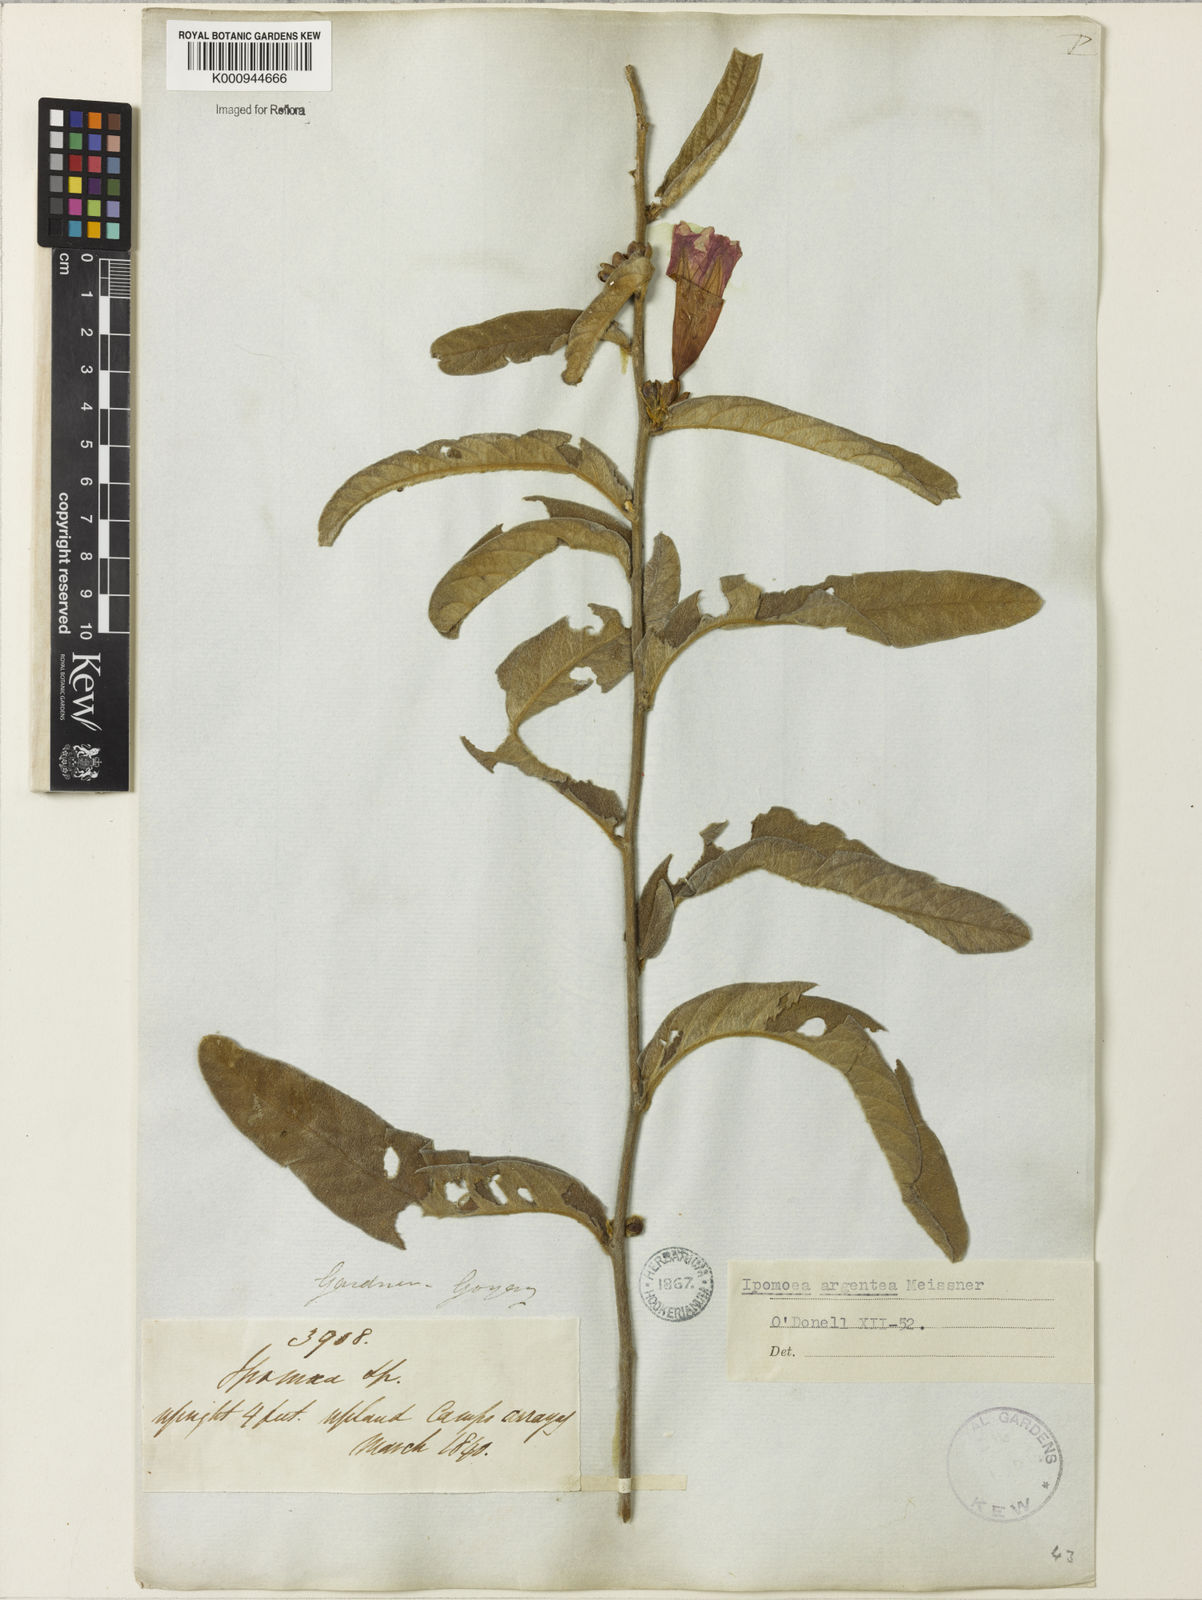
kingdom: Plantae
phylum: Tracheophyta
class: Magnoliopsida
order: Solanales
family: Convolvulaceae
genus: Ipomoea
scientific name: Ipomoea
